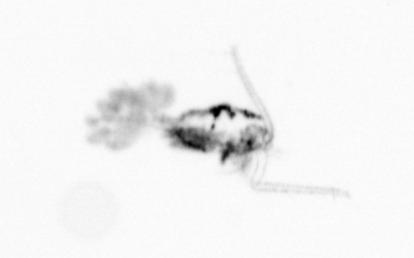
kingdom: Animalia
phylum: Arthropoda
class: Copepoda
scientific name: Copepoda
